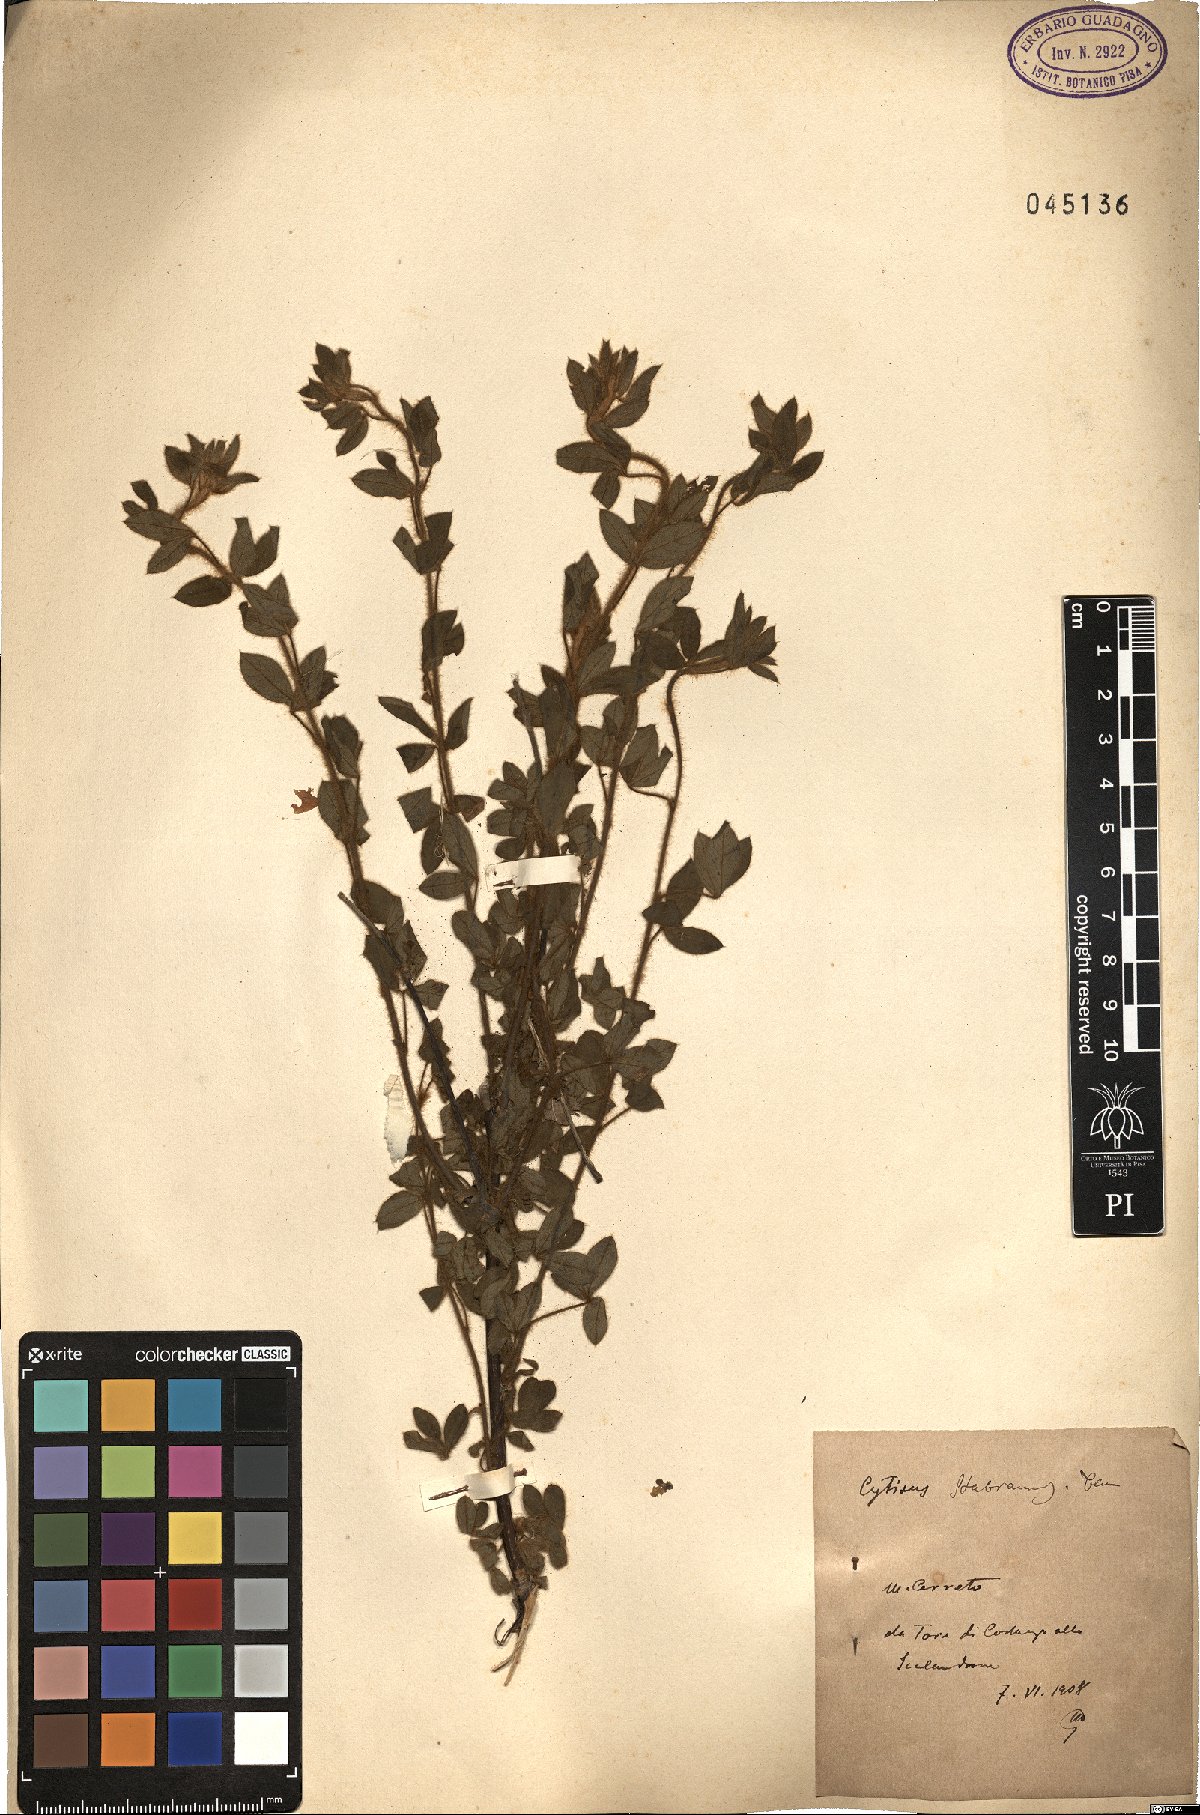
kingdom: Plantae
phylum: Tracheophyta
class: Magnoliopsida
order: Fabales
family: Fabaceae
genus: Cytisus
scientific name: Cytisus
